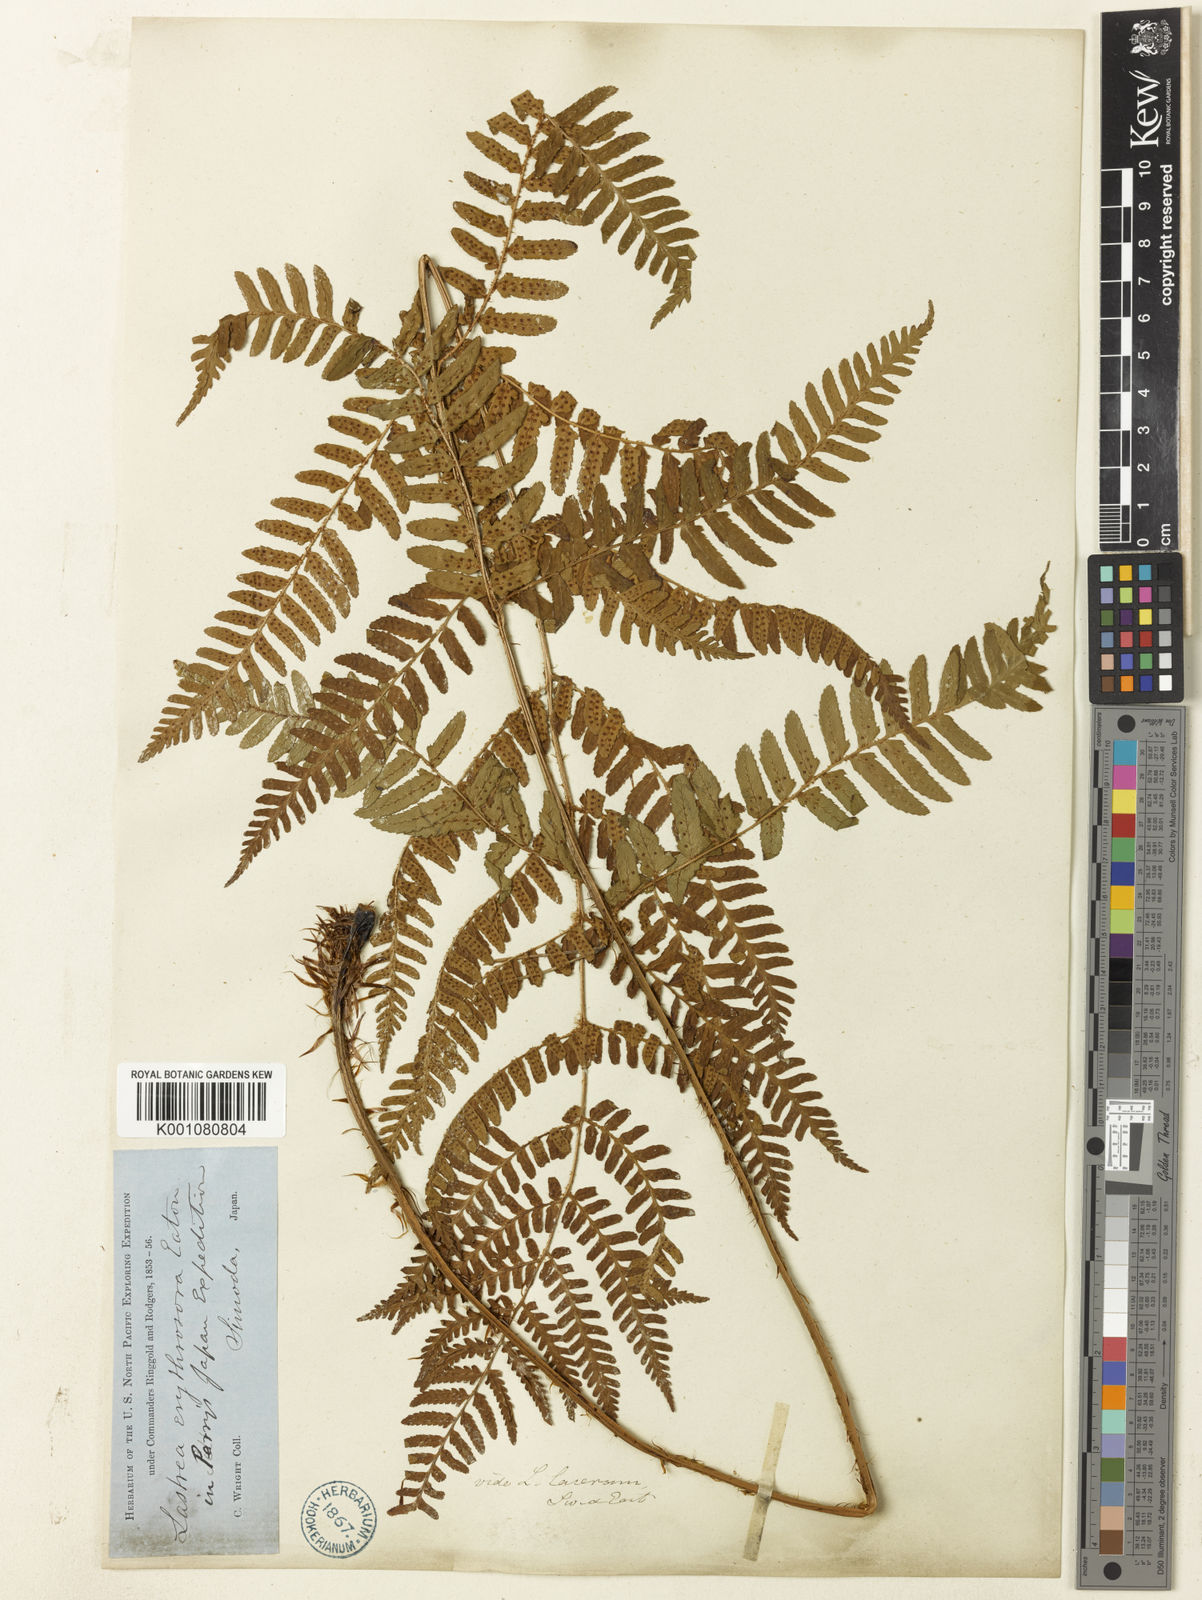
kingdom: Plantae
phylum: Tracheophyta
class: Polypodiopsida
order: Polypodiales
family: Dryopteridaceae
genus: Dryopteris
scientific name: Dryopteris erythrosora
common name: Autumn fern
